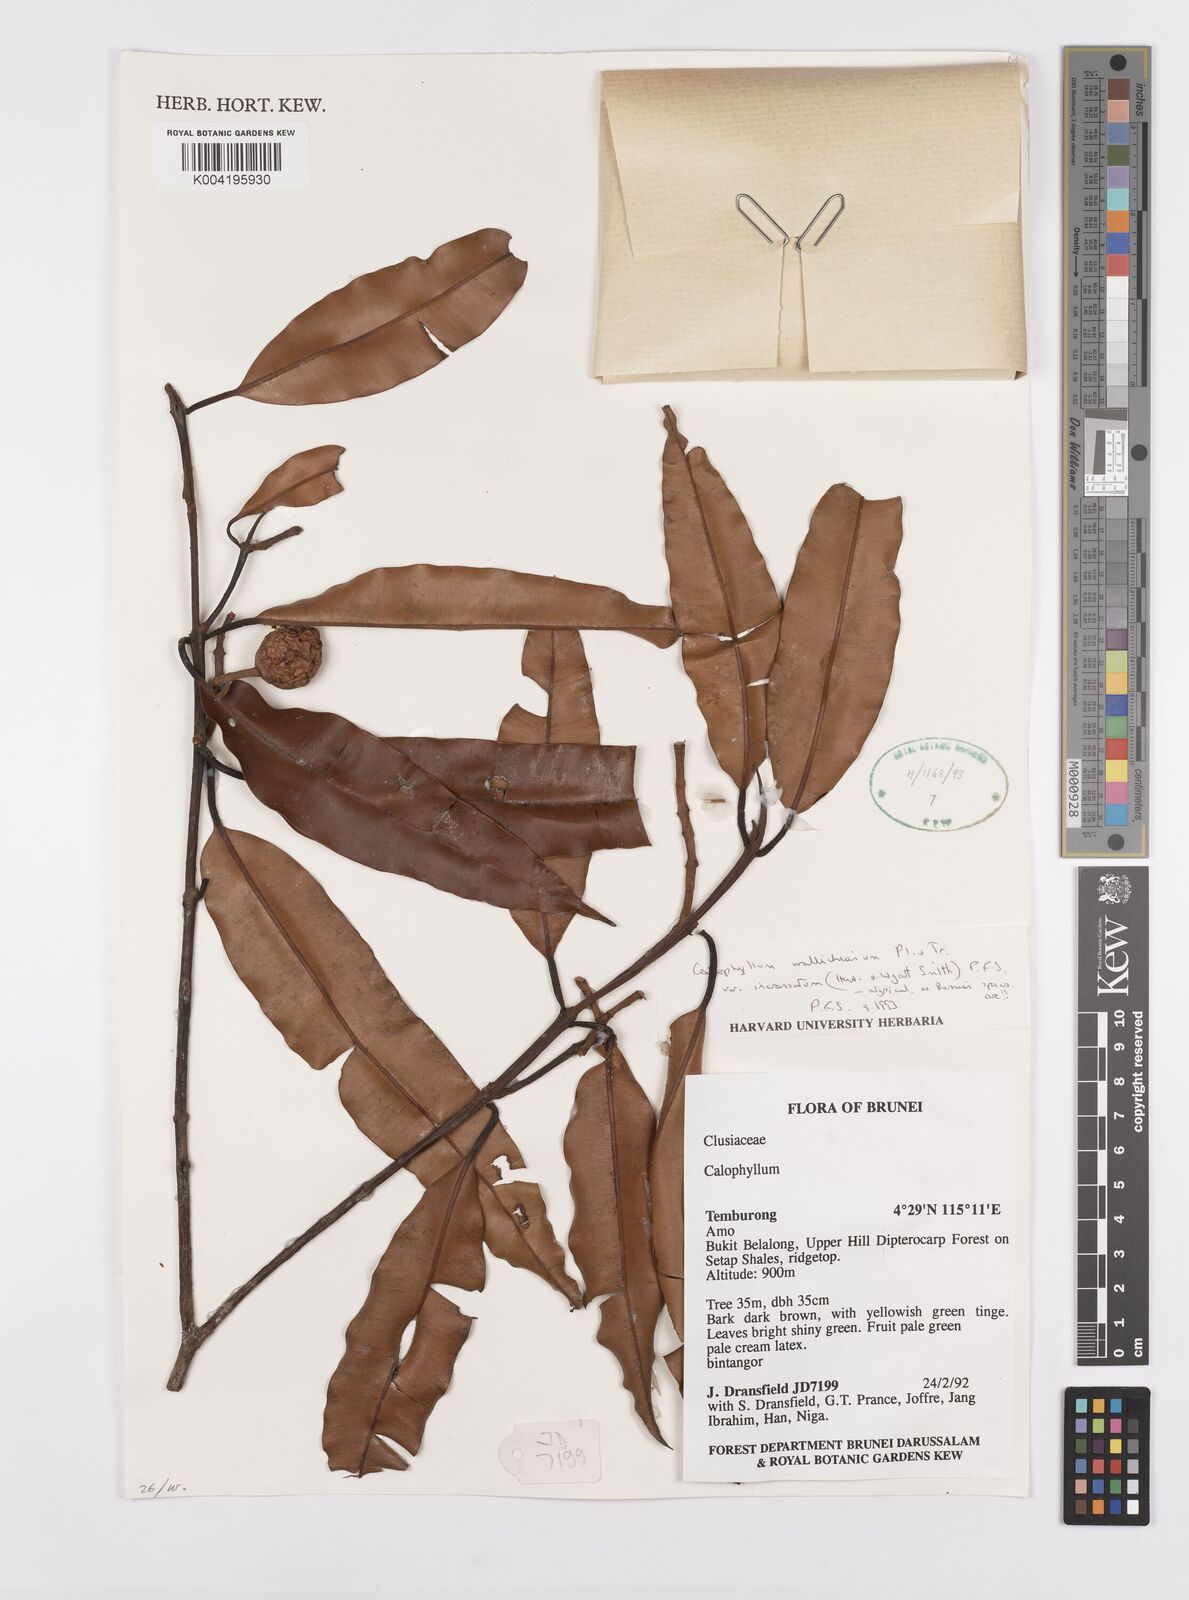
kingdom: Plantae
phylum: Tracheophyta
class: Magnoliopsida
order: Malpighiales
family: Calophyllaceae
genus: Calophyllum
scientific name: Calophyllum wallichiana
